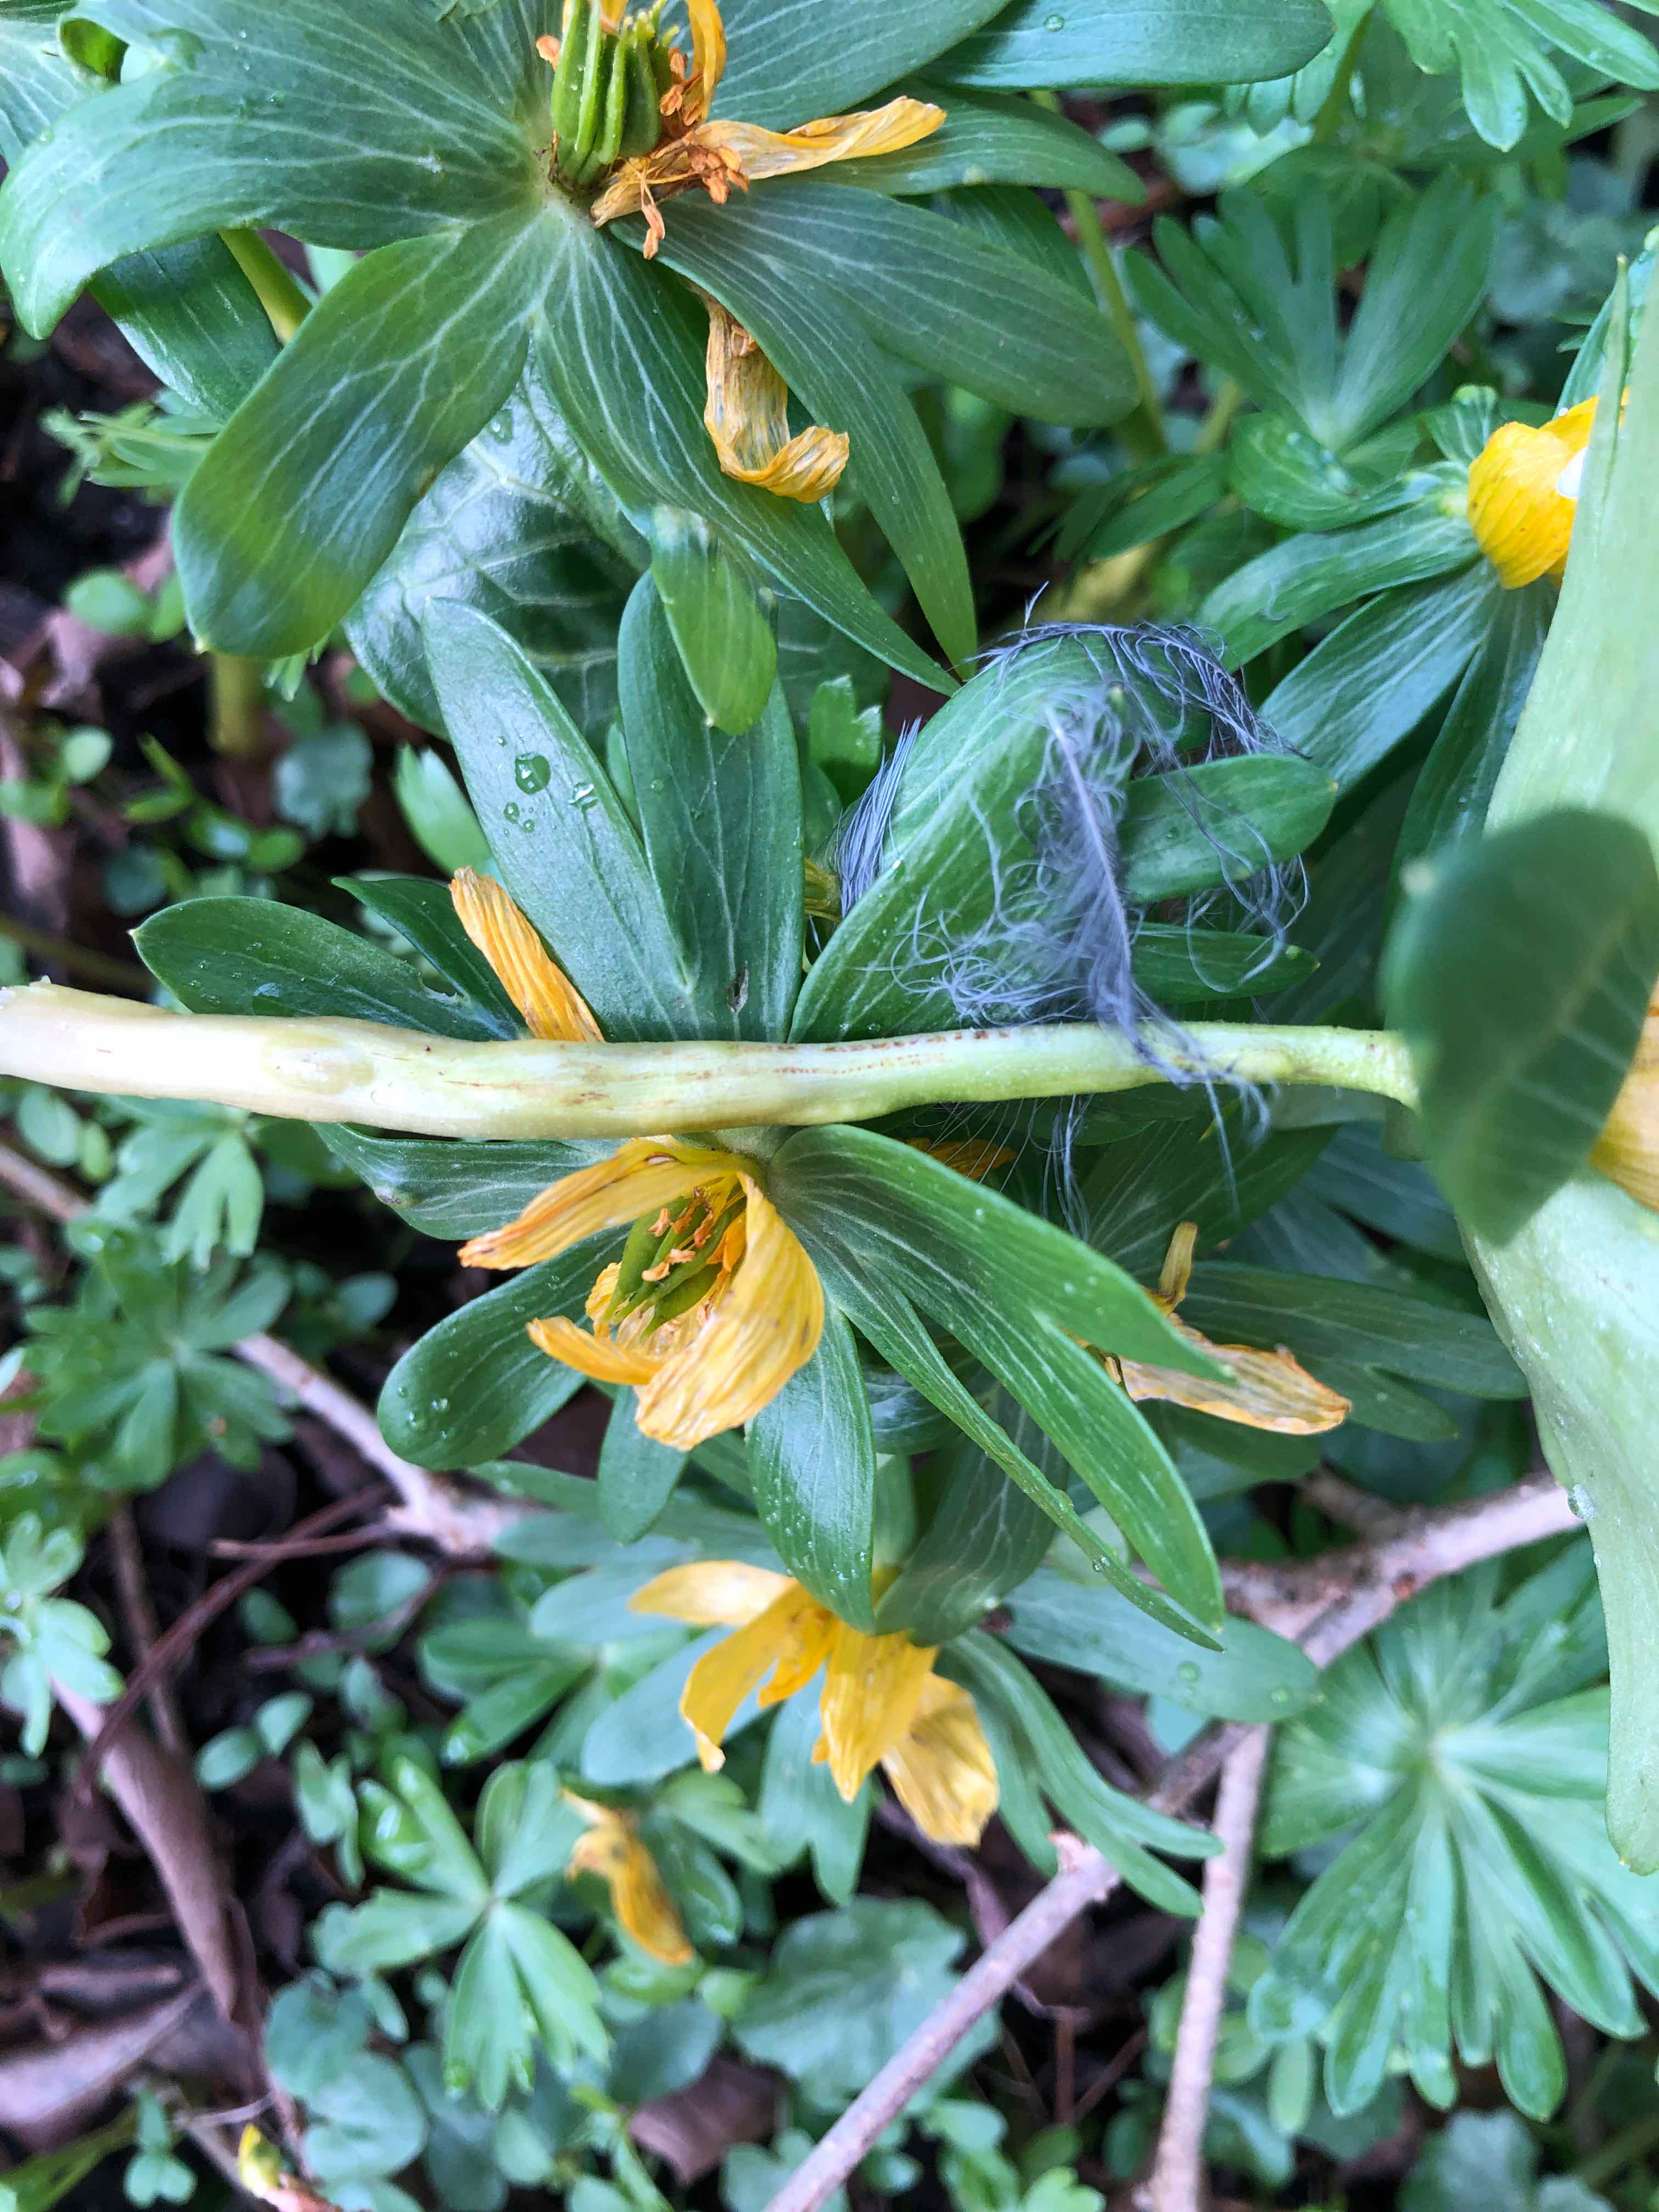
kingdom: Fungi
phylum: Basidiomycota
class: Ustilaginomycetes
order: Urocystidales
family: Urocystidaceae
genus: Urocystis
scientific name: Urocystis eranthidis
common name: erantis-brand
